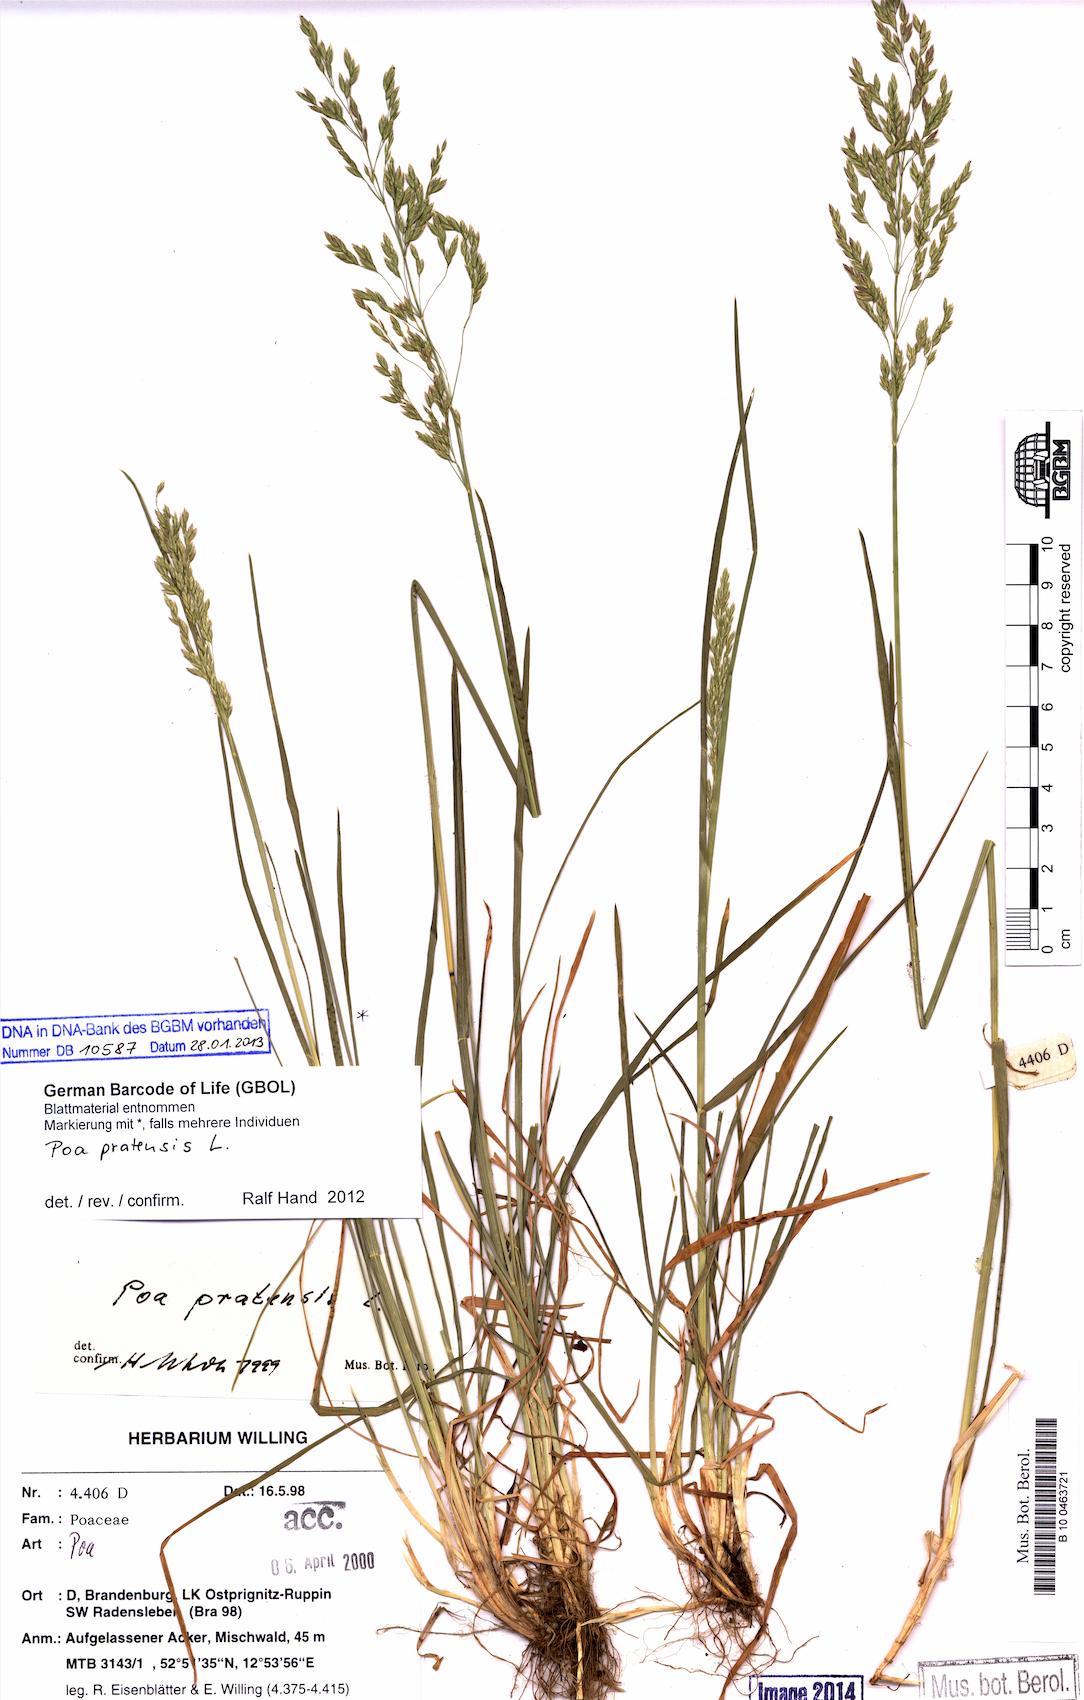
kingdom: Plantae
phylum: Tracheophyta
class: Liliopsida
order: Poales
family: Poaceae
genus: Poa
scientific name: Poa pratensis
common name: Kentucky bluegrass
